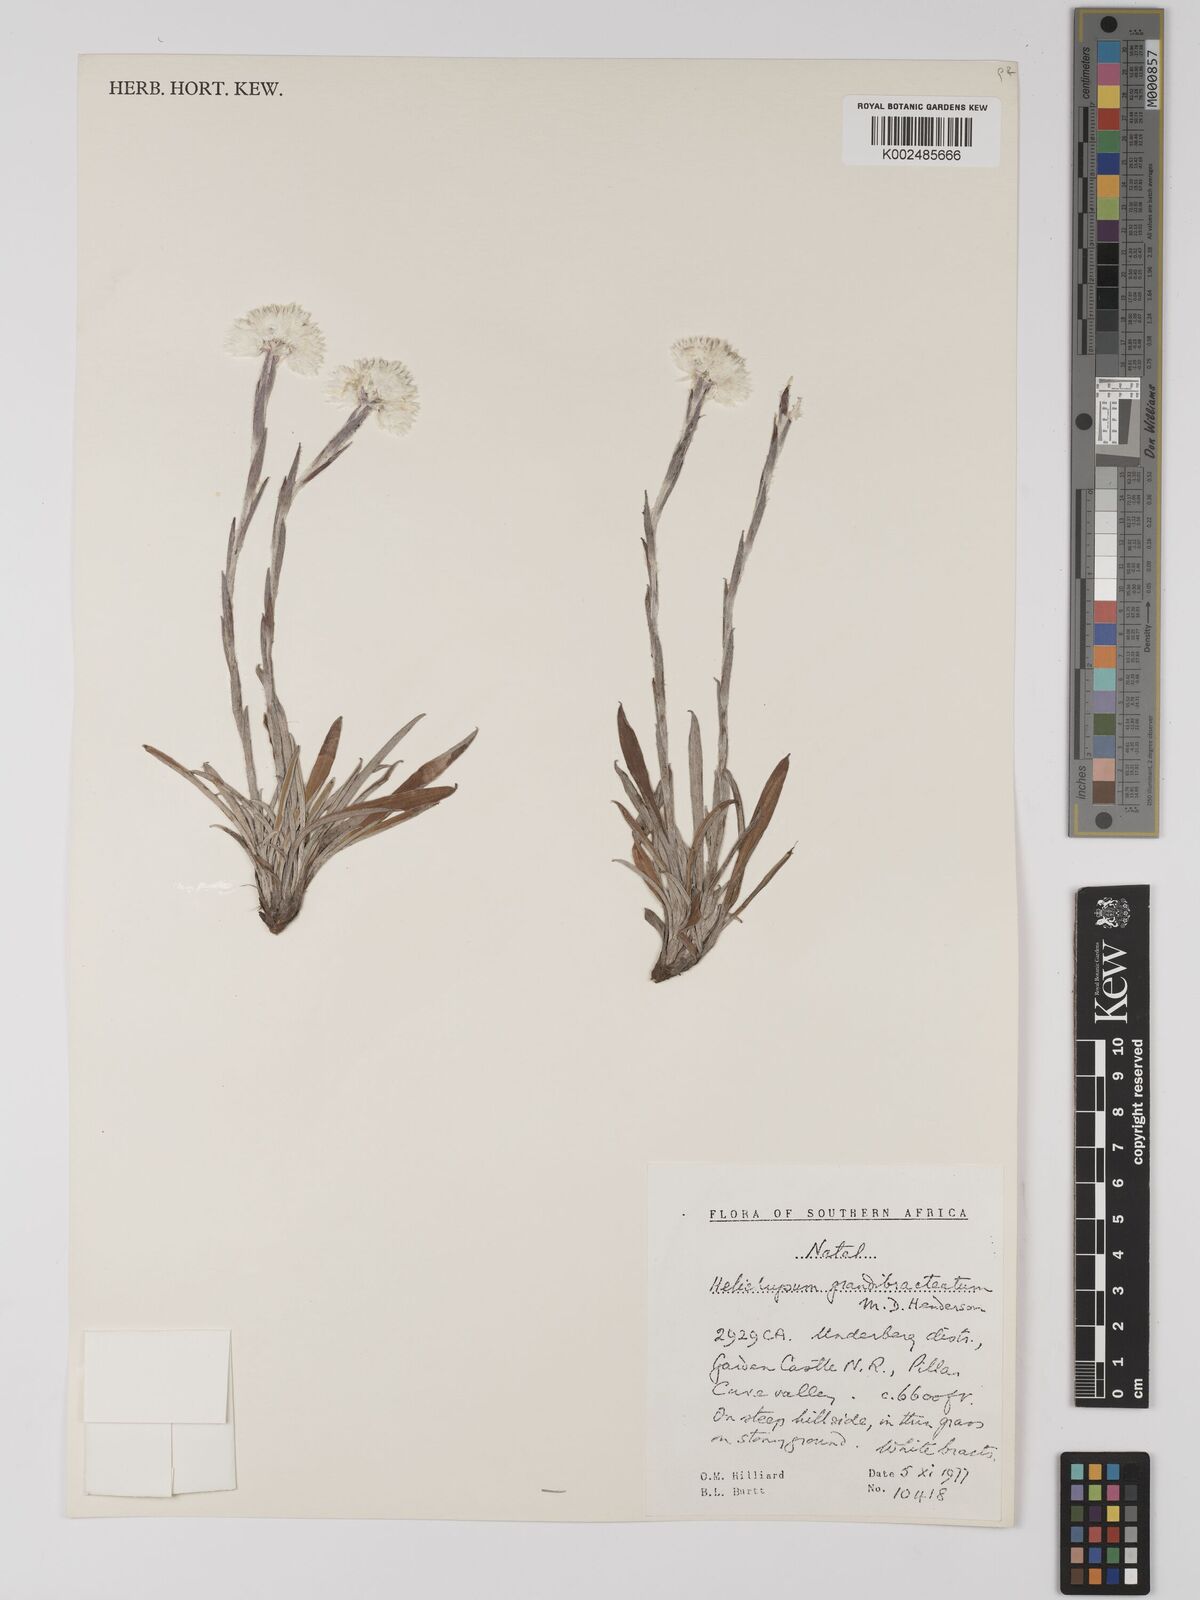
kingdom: Plantae
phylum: Tracheophyta
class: Magnoliopsida
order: Asterales
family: Asteraceae
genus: Helichrysum
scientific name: Helichrysum grandibracteatum
